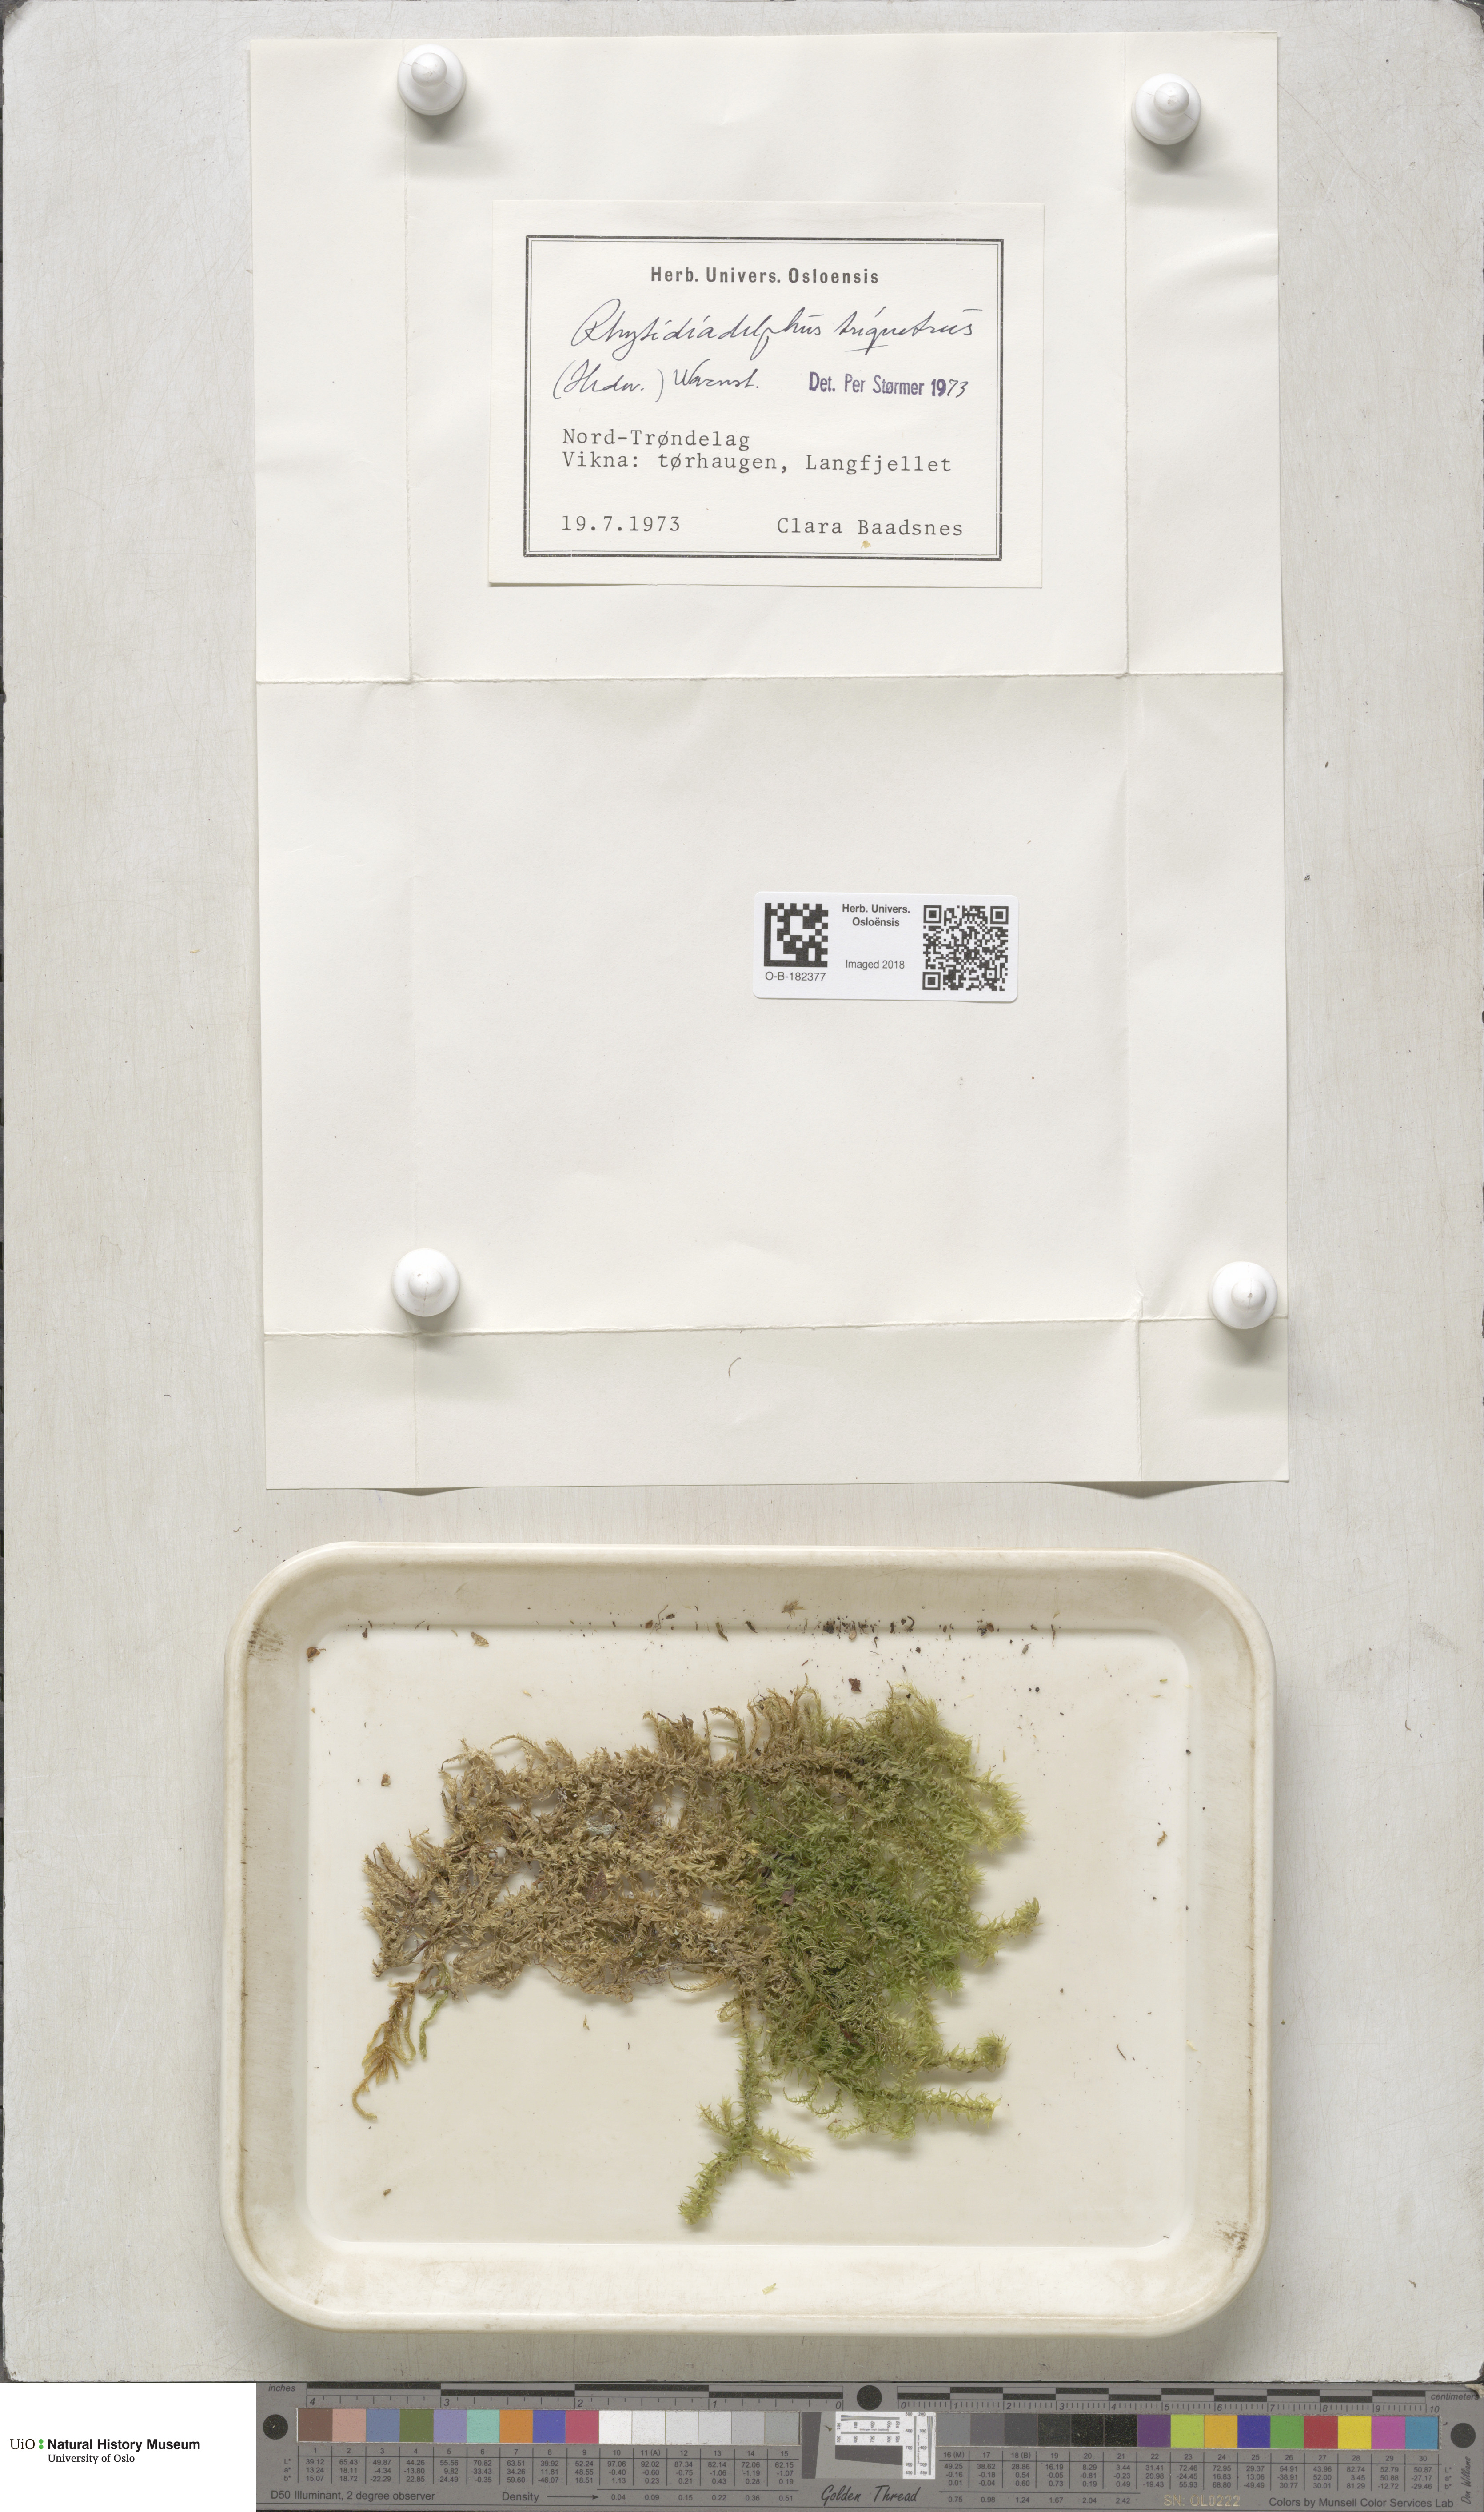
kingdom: Plantae
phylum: Bryophyta
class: Bryopsida
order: Hypnales
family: Hylocomiaceae
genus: Hylocomiadelphus
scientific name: Hylocomiadelphus triquetrus
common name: Rough goose neck moss
